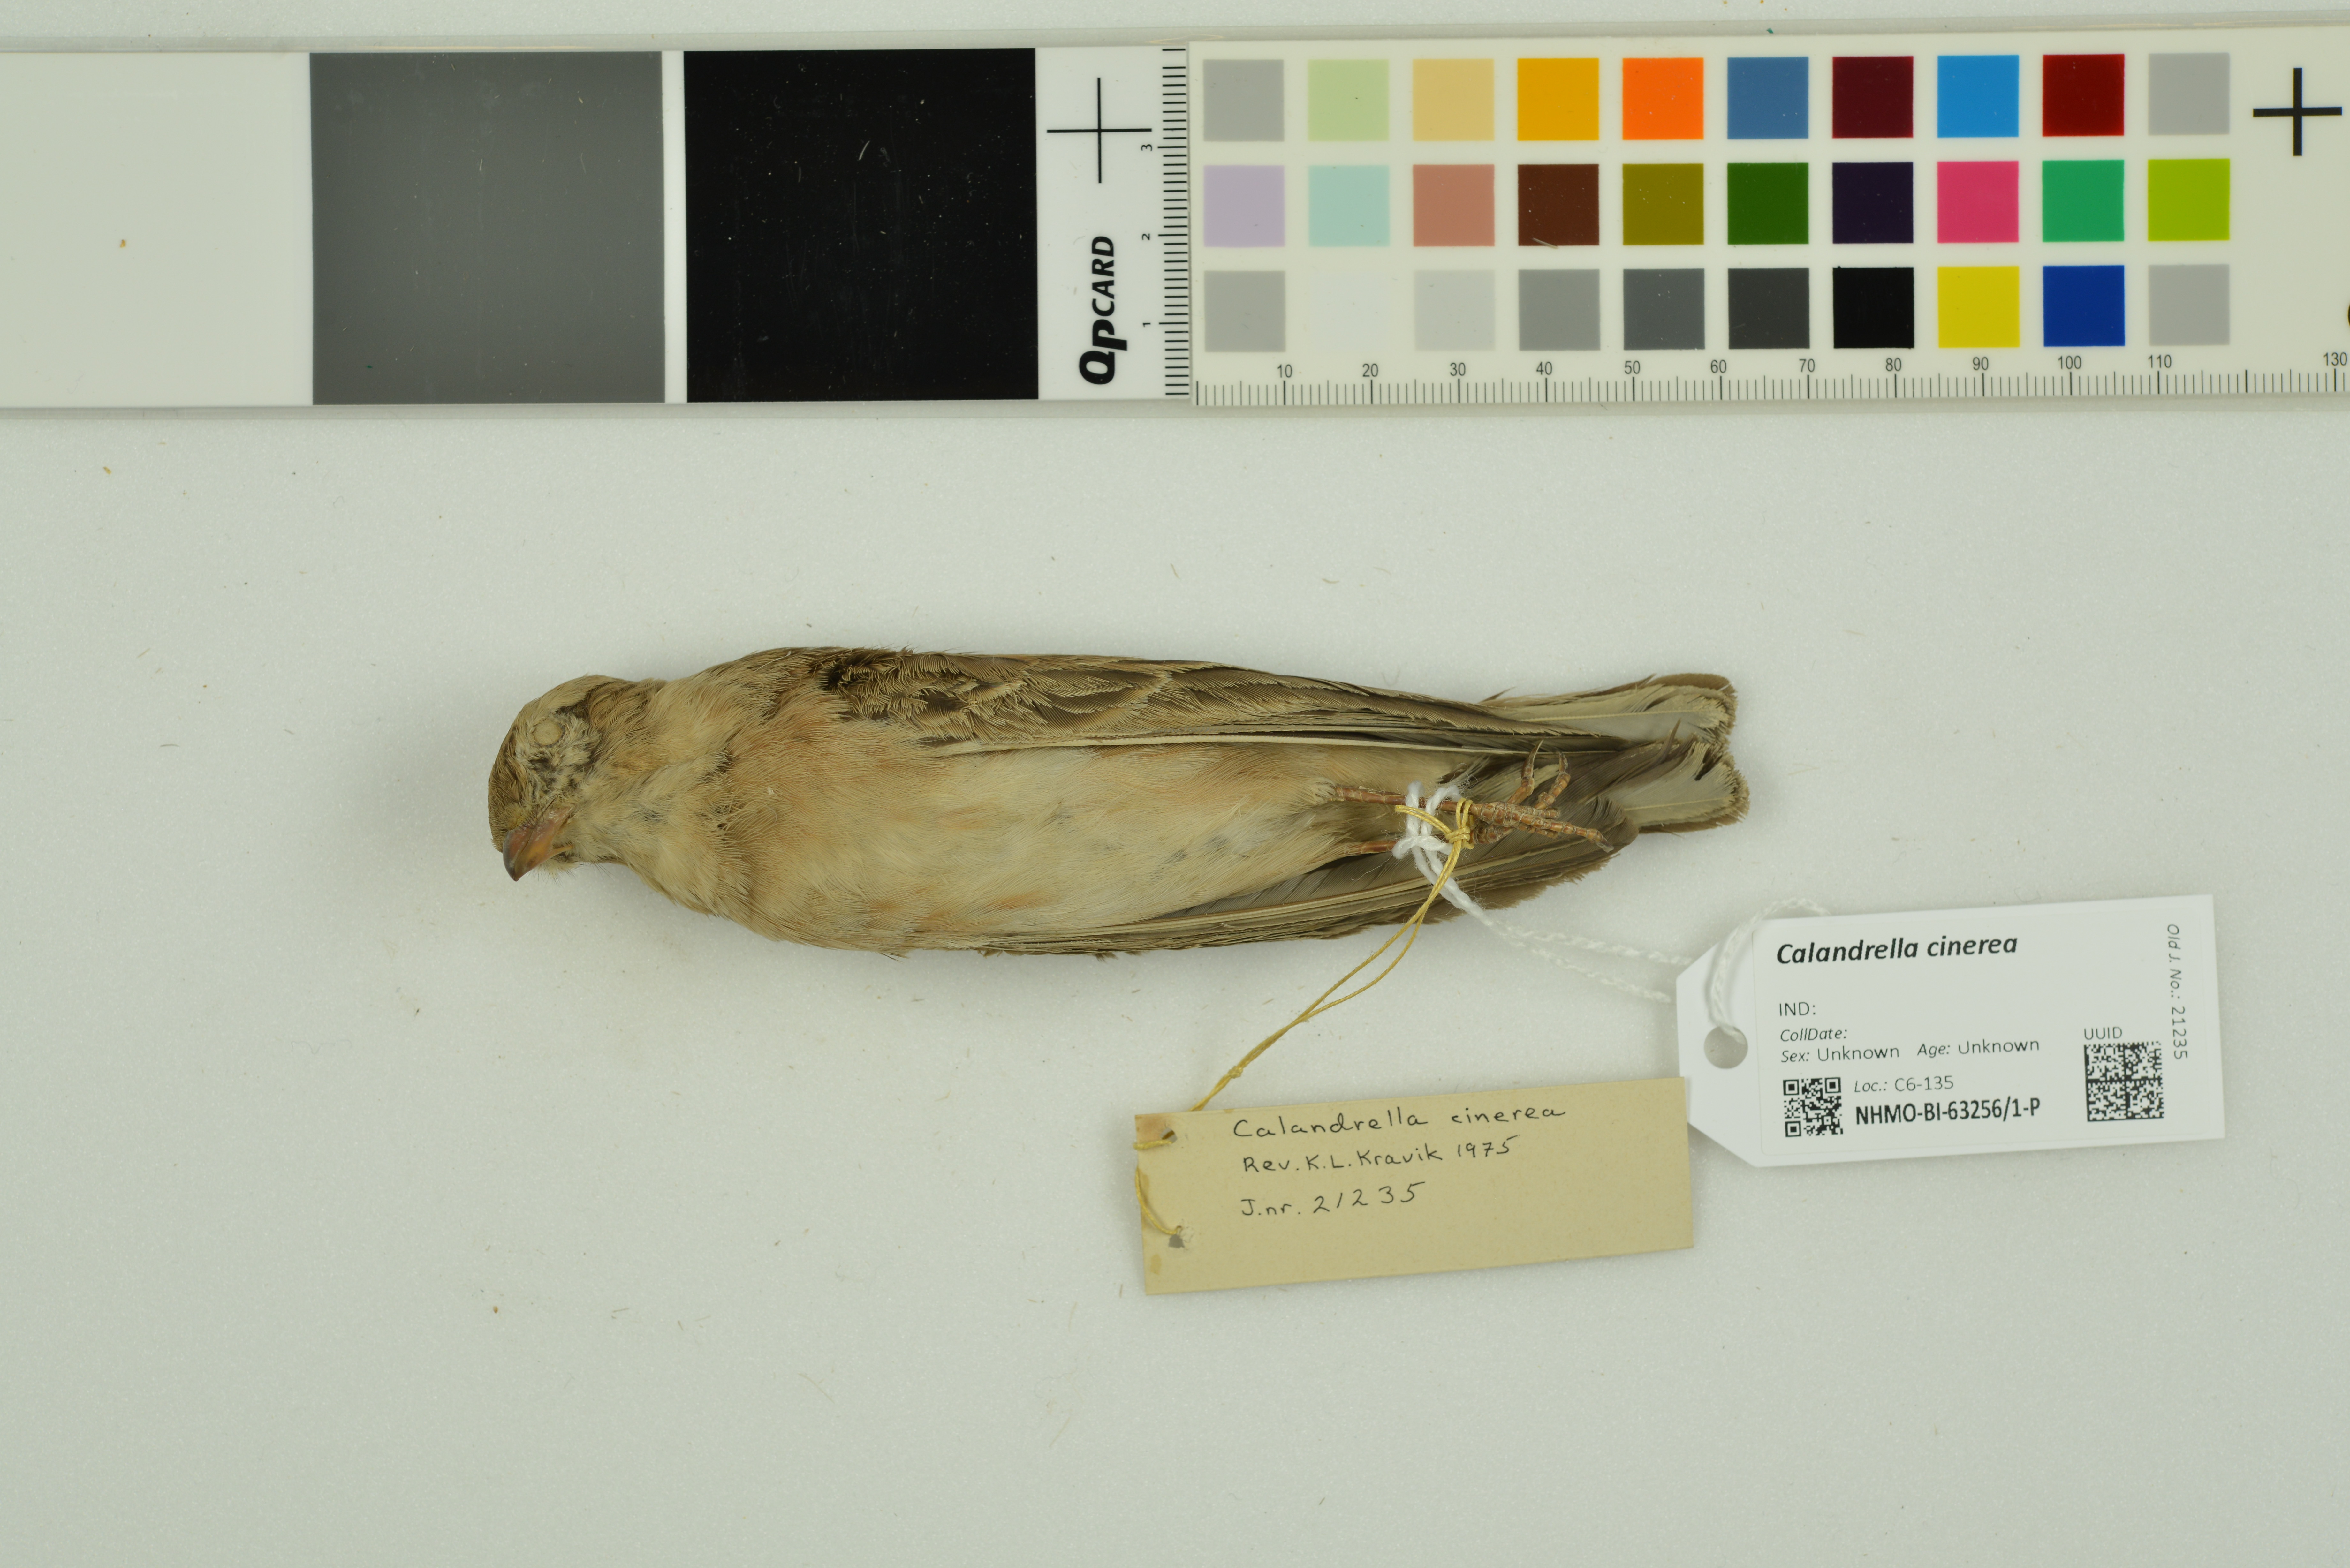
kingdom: Animalia
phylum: Chordata
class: Aves
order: Passeriformes
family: Alaudidae
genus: Calandrella
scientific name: Calandrella cinerea
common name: Red-capped lark
